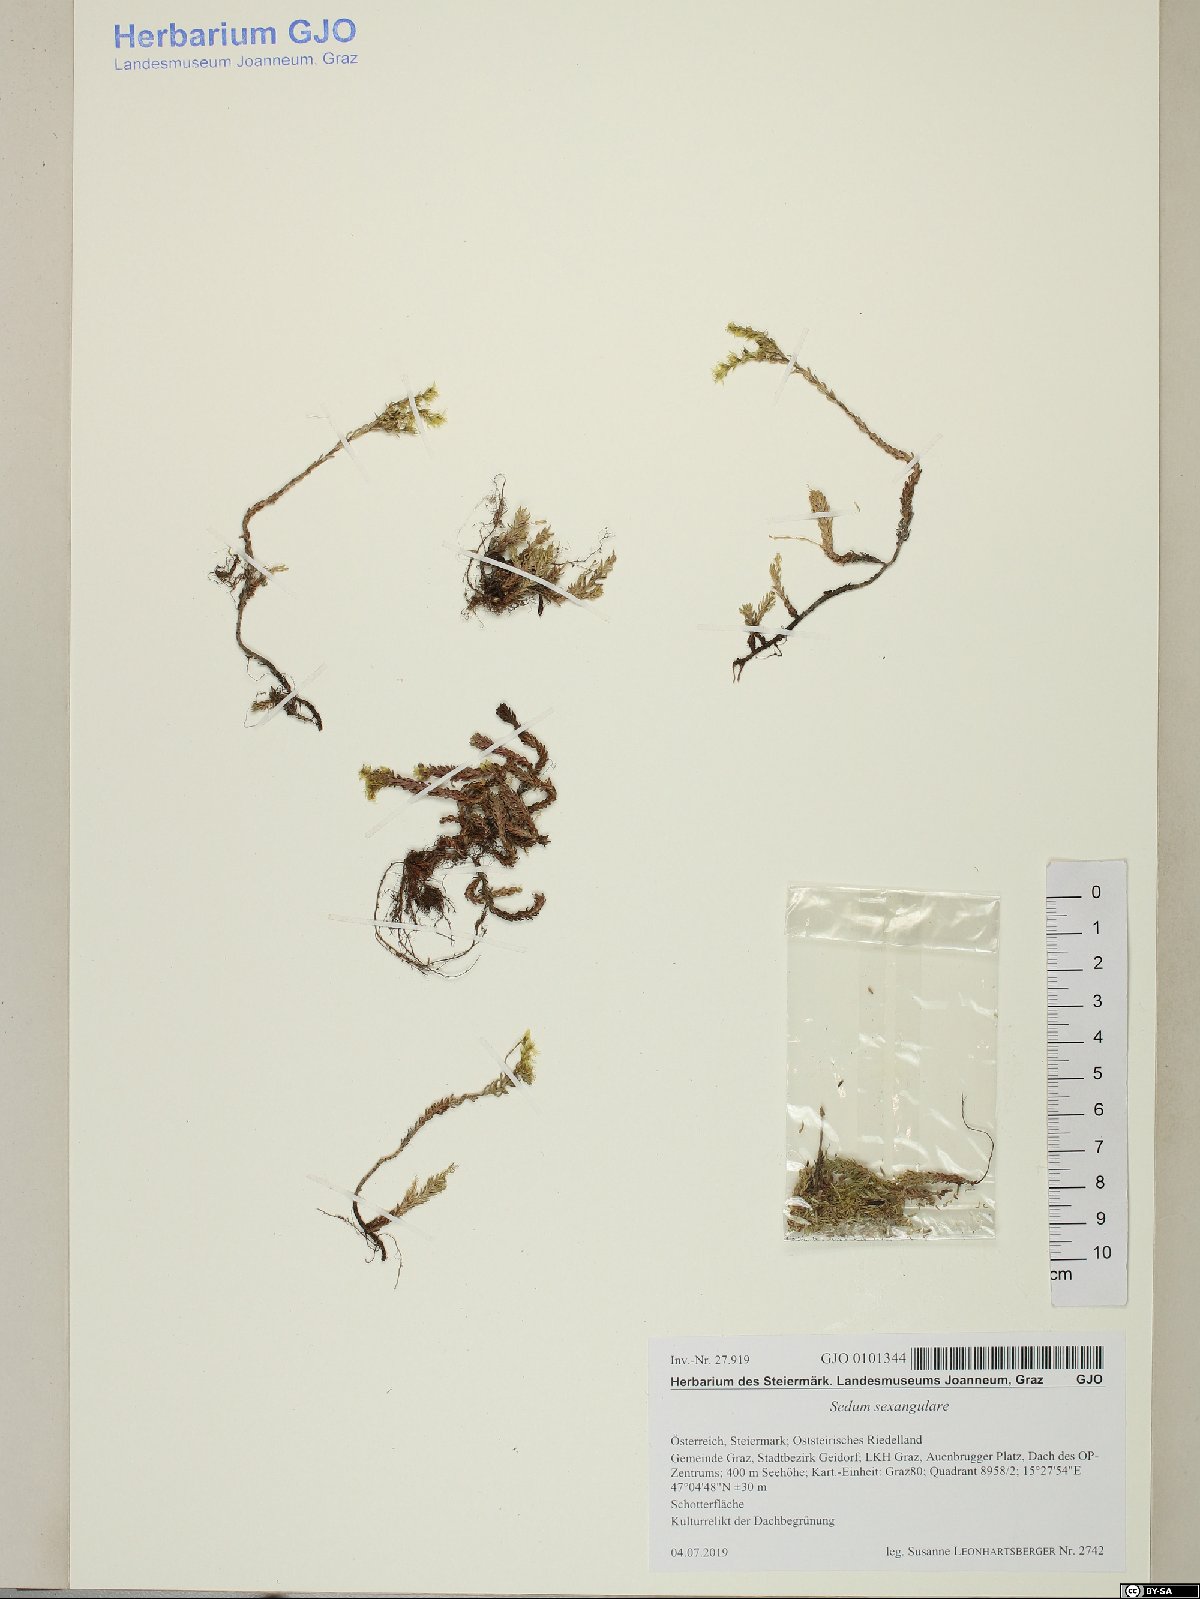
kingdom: Plantae
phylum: Tracheophyta
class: Magnoliopsida
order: Saxifragales
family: Crassulaceae
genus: Sedum
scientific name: Sedum sexangulare
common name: Tasteless stonecrop
